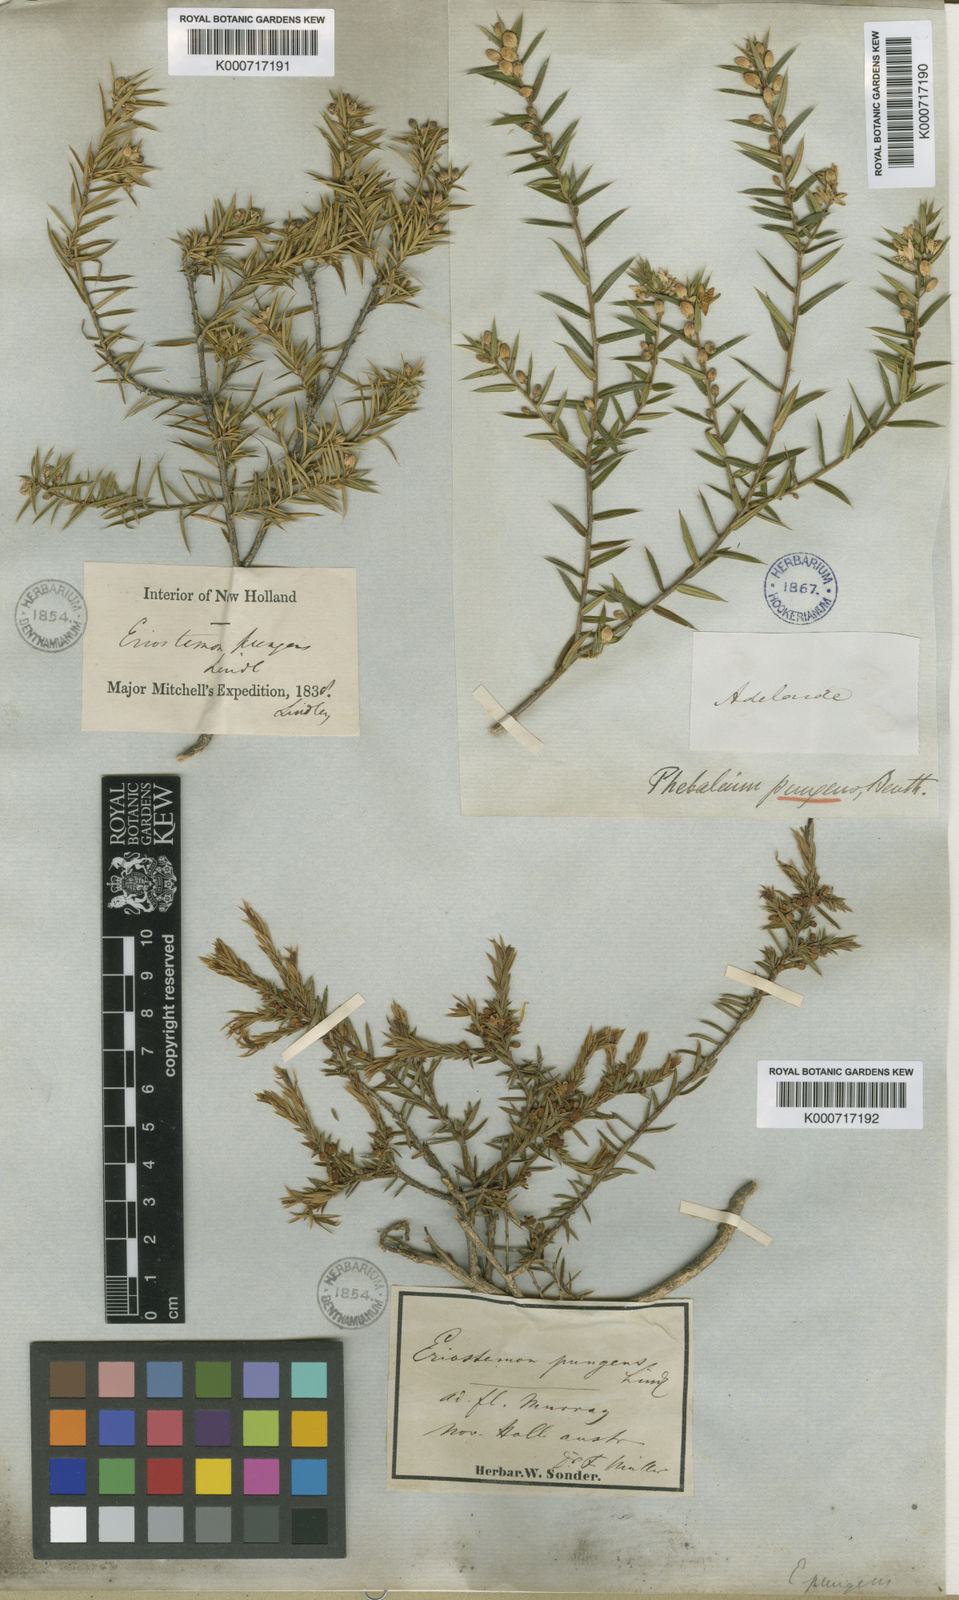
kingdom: Plantae
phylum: Tracheophyta
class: Magnoliopsida
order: Sapindales
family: Rutaceae
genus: Philotheca
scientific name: Philotheca pungens
